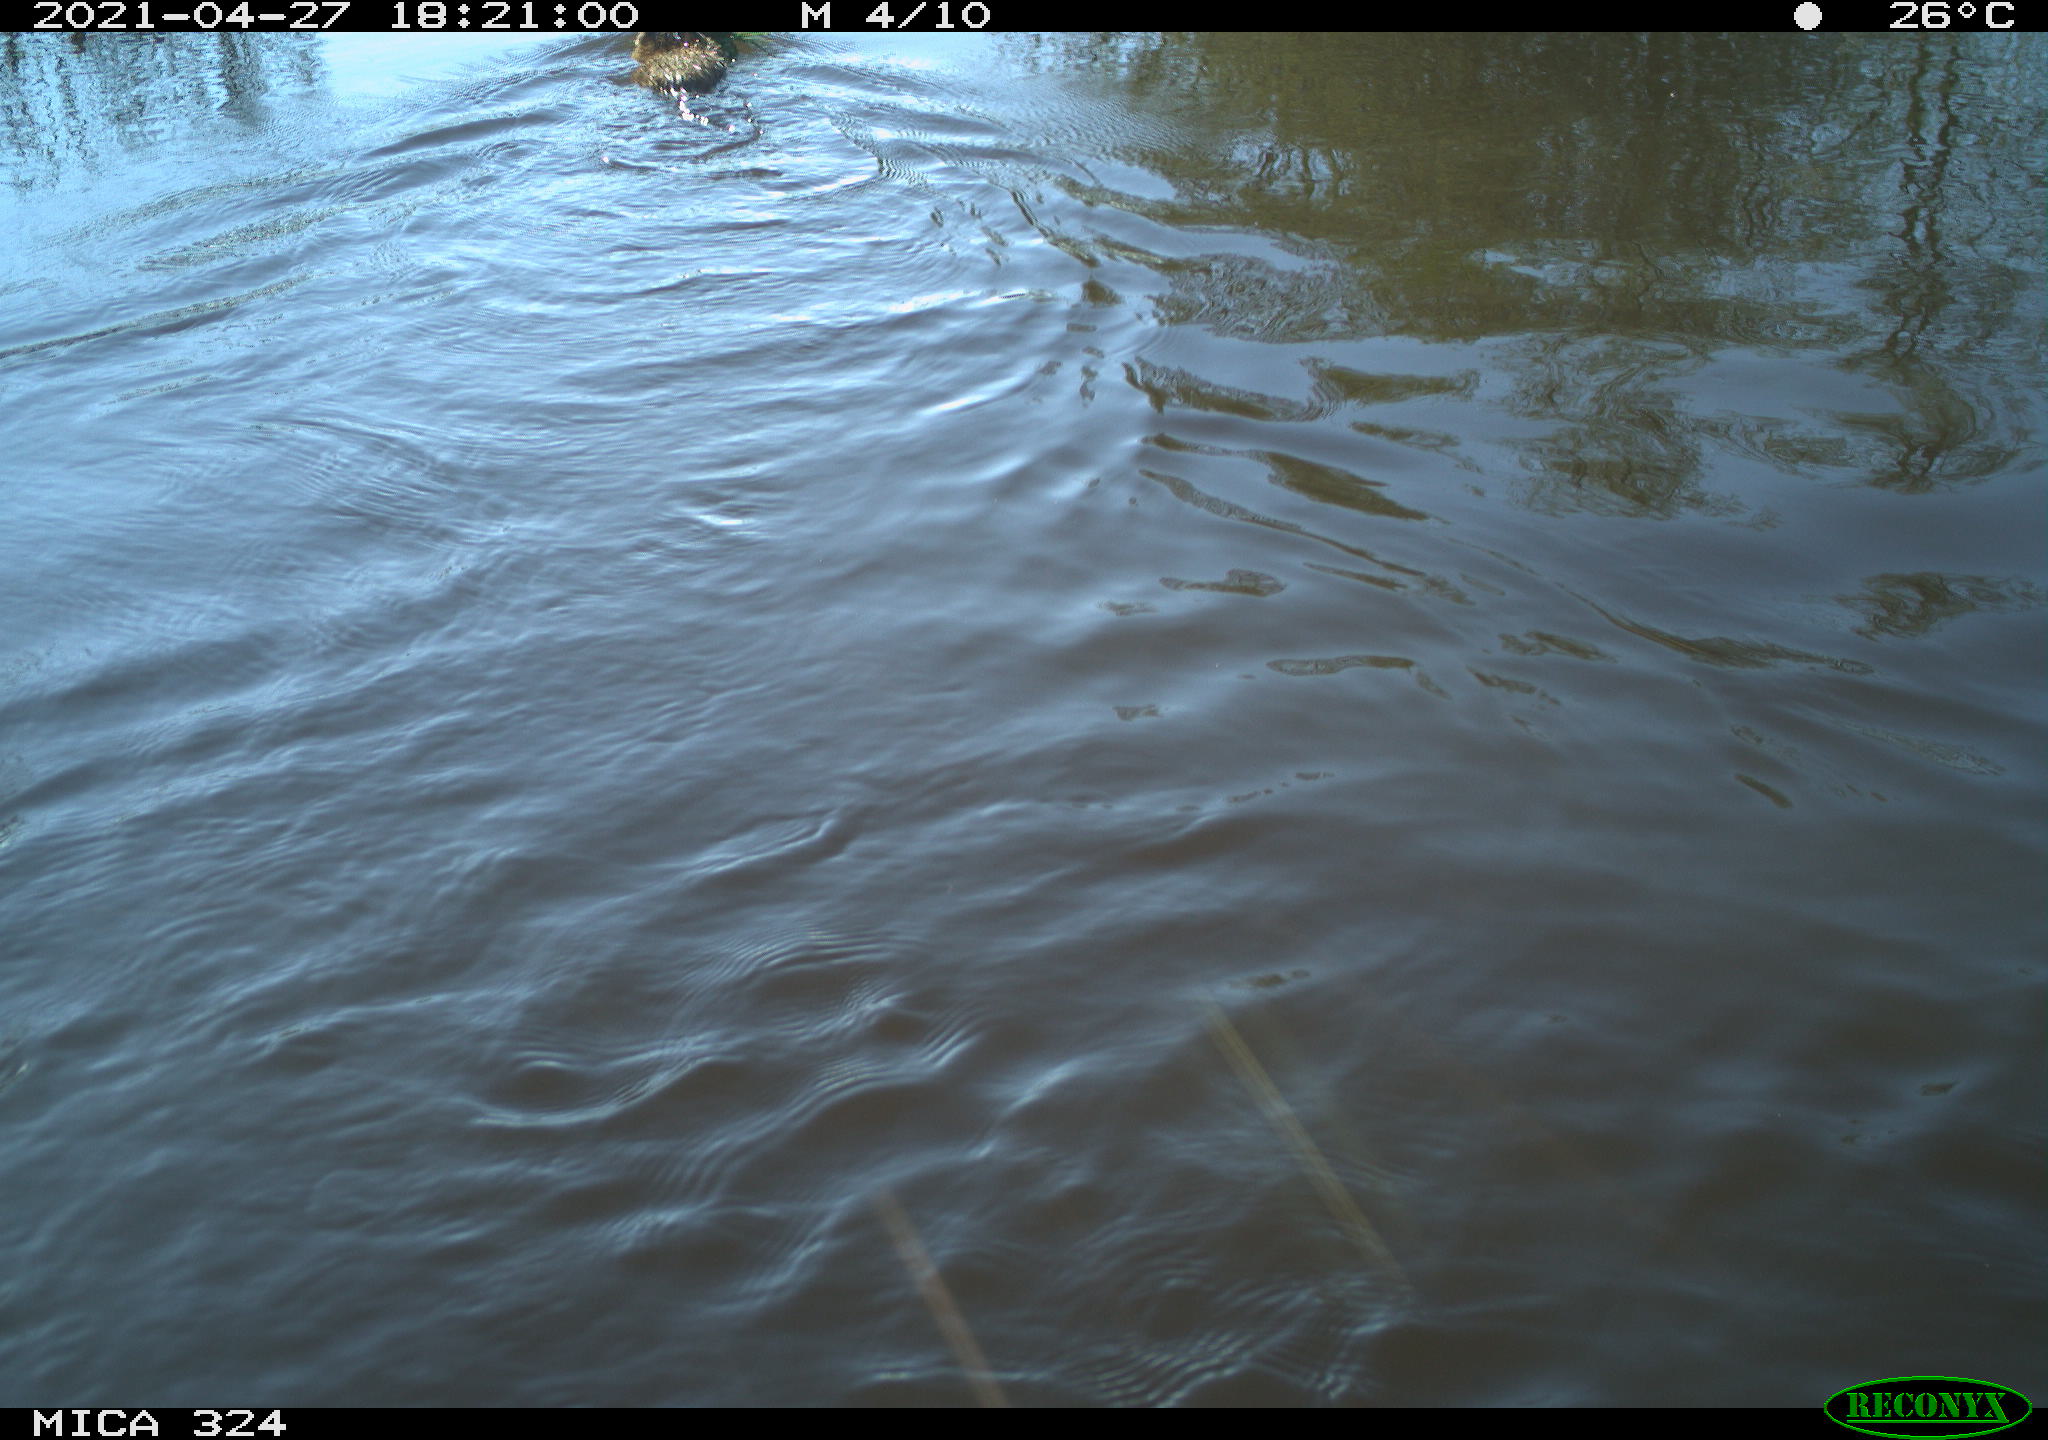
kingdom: Animalia
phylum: Chordata
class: Mammalia
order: Rodentia
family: Cricetidae
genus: Ondatra
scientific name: Ondatra zibethicus
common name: Muskrat
